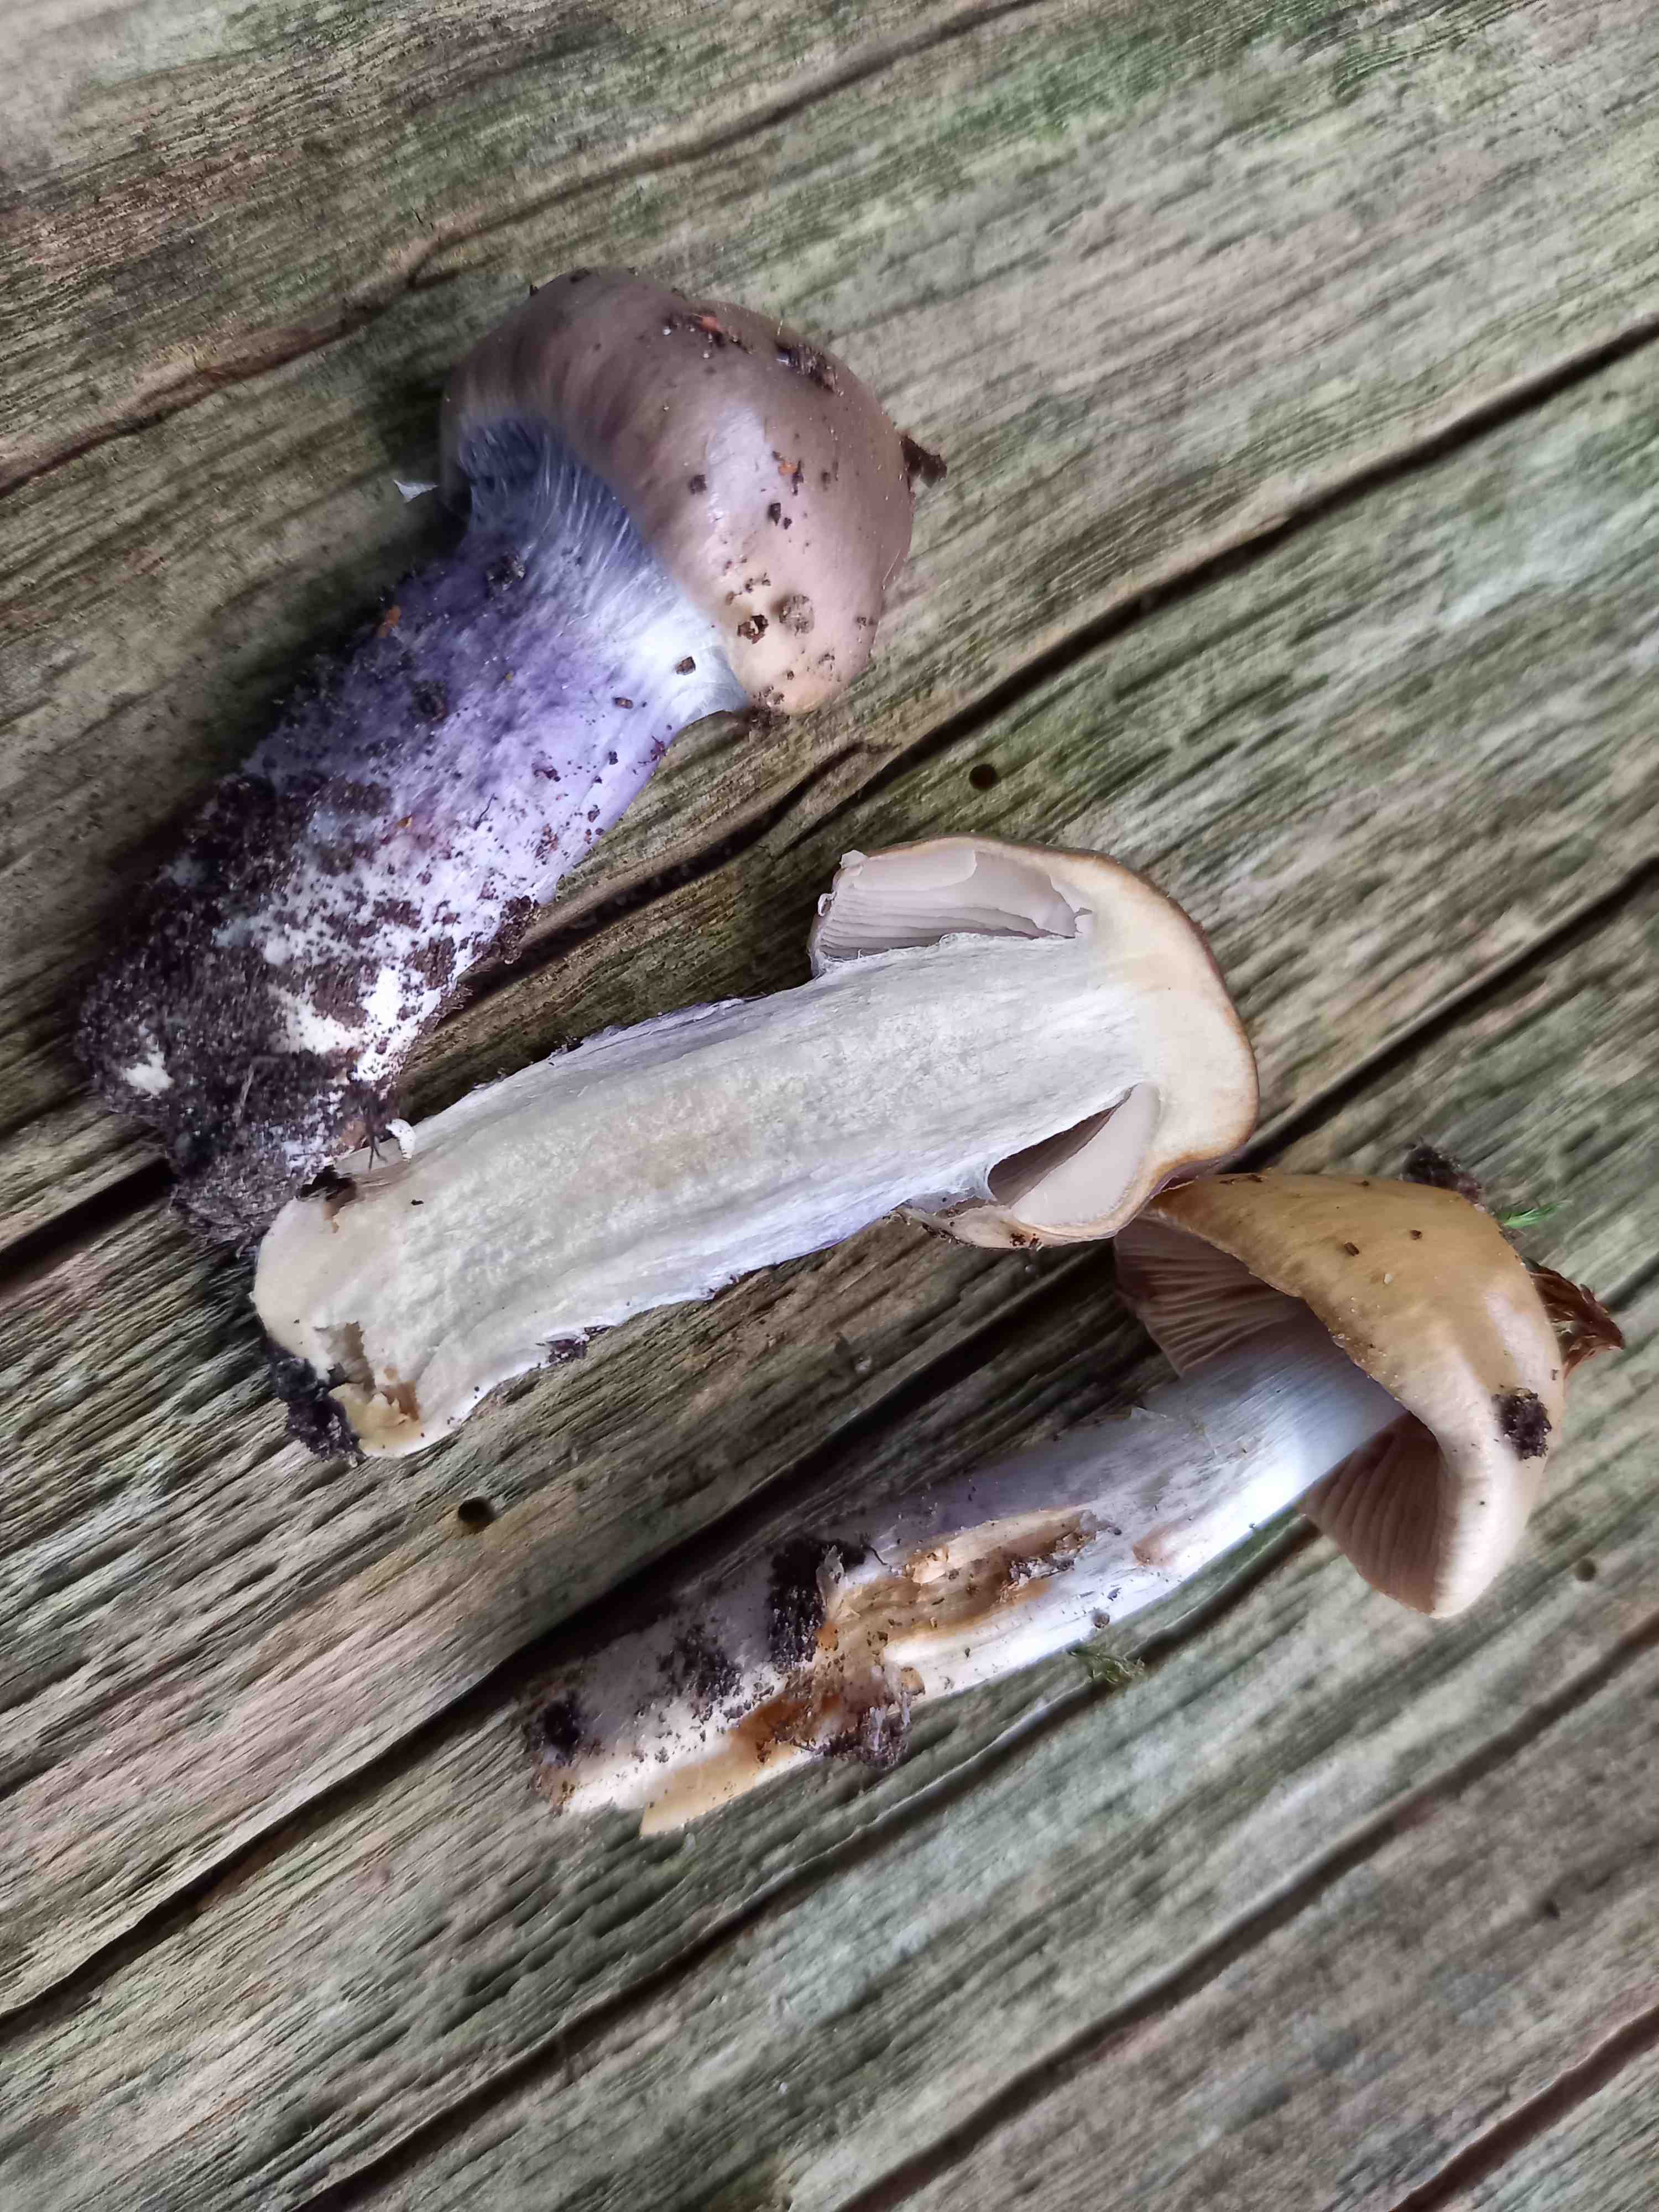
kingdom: Fungi
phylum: Basidiomycota
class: Agaricomycetes
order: Agaricales
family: Cortinariaceae
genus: Cortinarius
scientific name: Cortinarius
